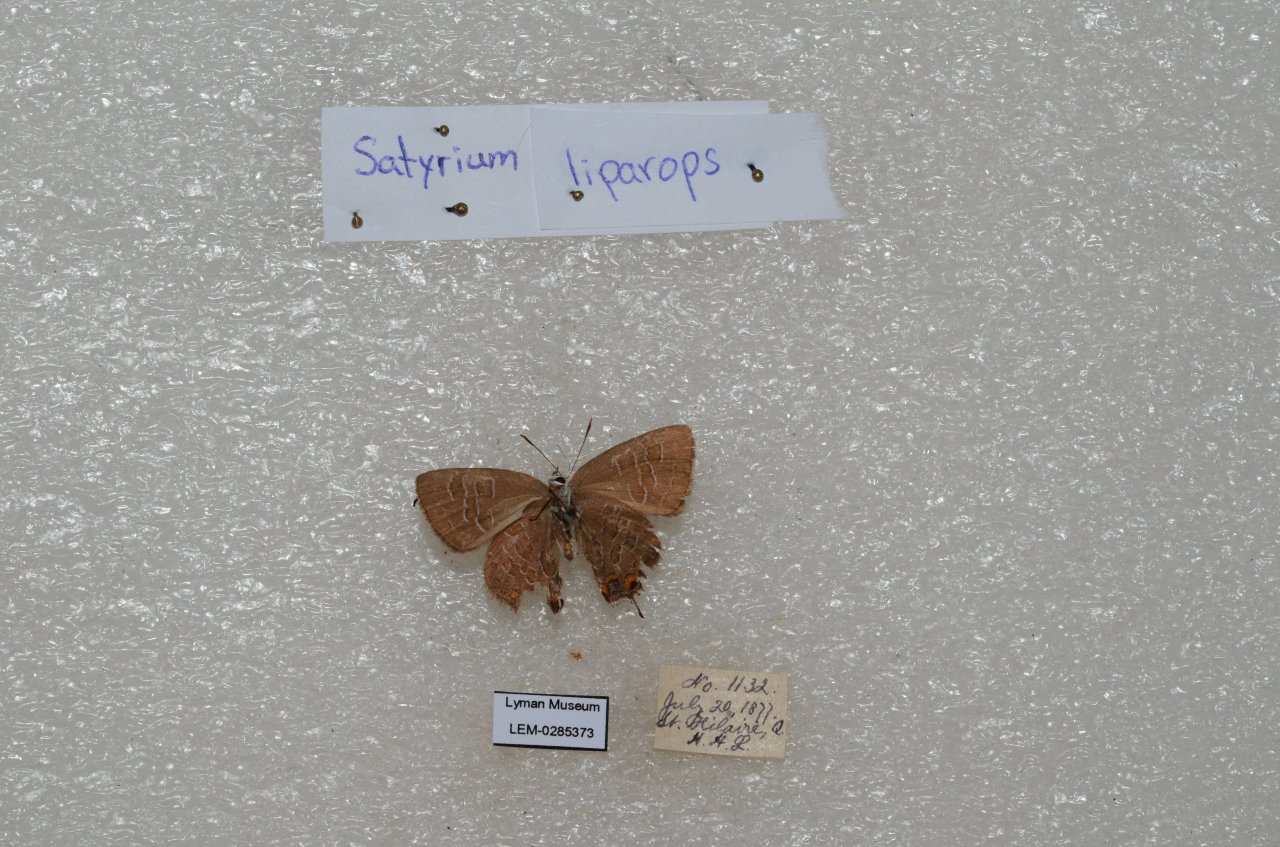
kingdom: Animalia
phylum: Arthropoda
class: Insecta
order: Lepidoptera
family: Lycaenidae
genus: Satyrium
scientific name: Satyrium liparops
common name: Striped Hairstreak
